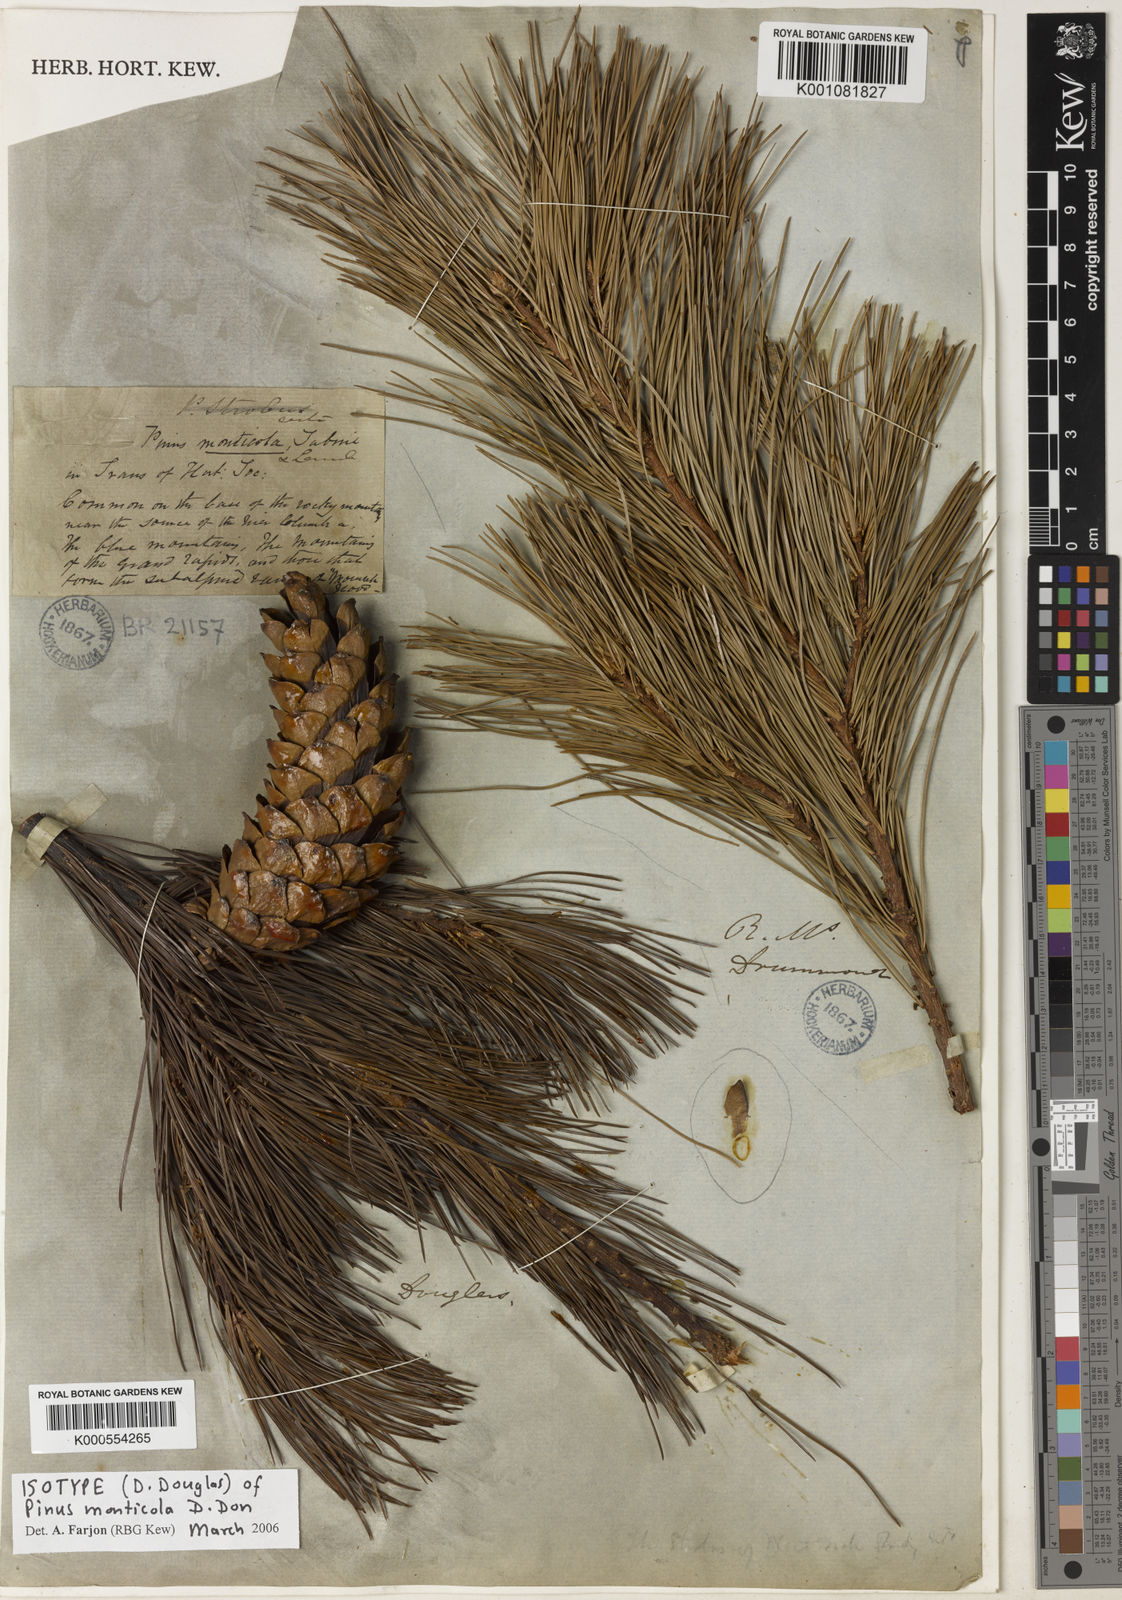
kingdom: Plantae
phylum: Tracheophyta
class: Pinopsida
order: Pinales
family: Pinaceae
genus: Pinus
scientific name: Pinus monticola
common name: Western white pine
